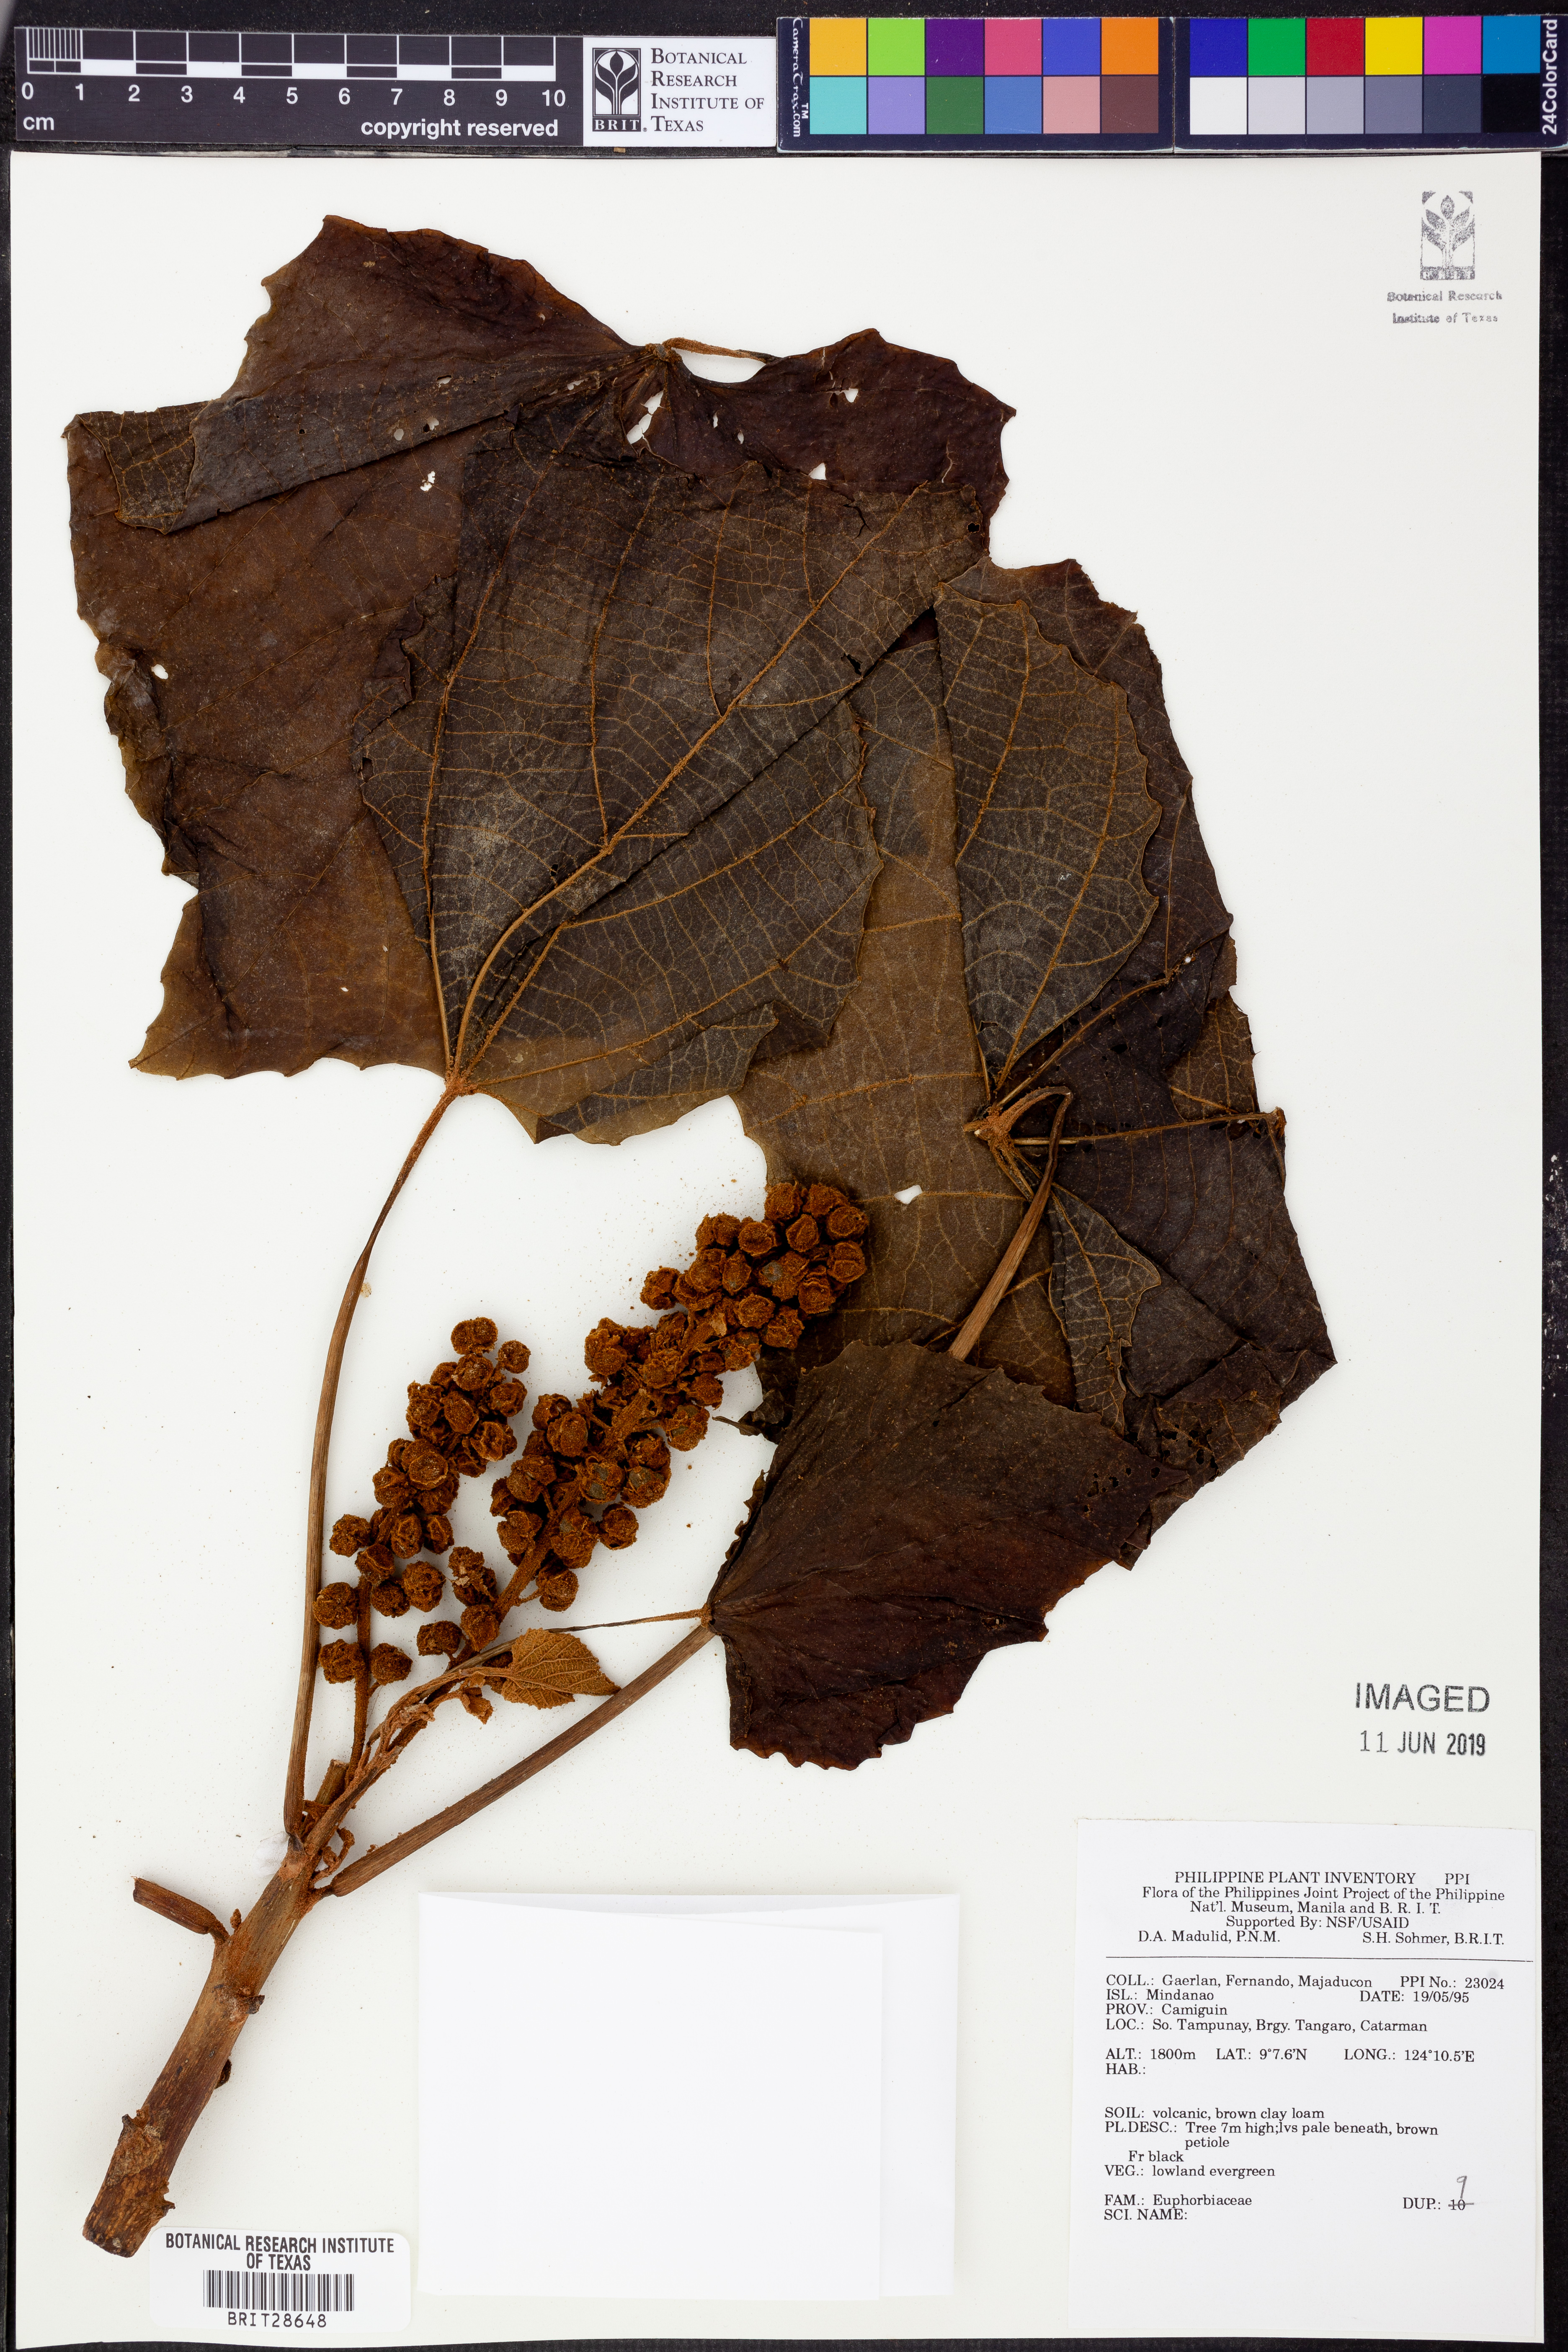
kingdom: Plantae
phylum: Tracheophyta
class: Magnoliopsida
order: Malpighiales
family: Euphorbiaceae
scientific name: Euphorbiaceae
